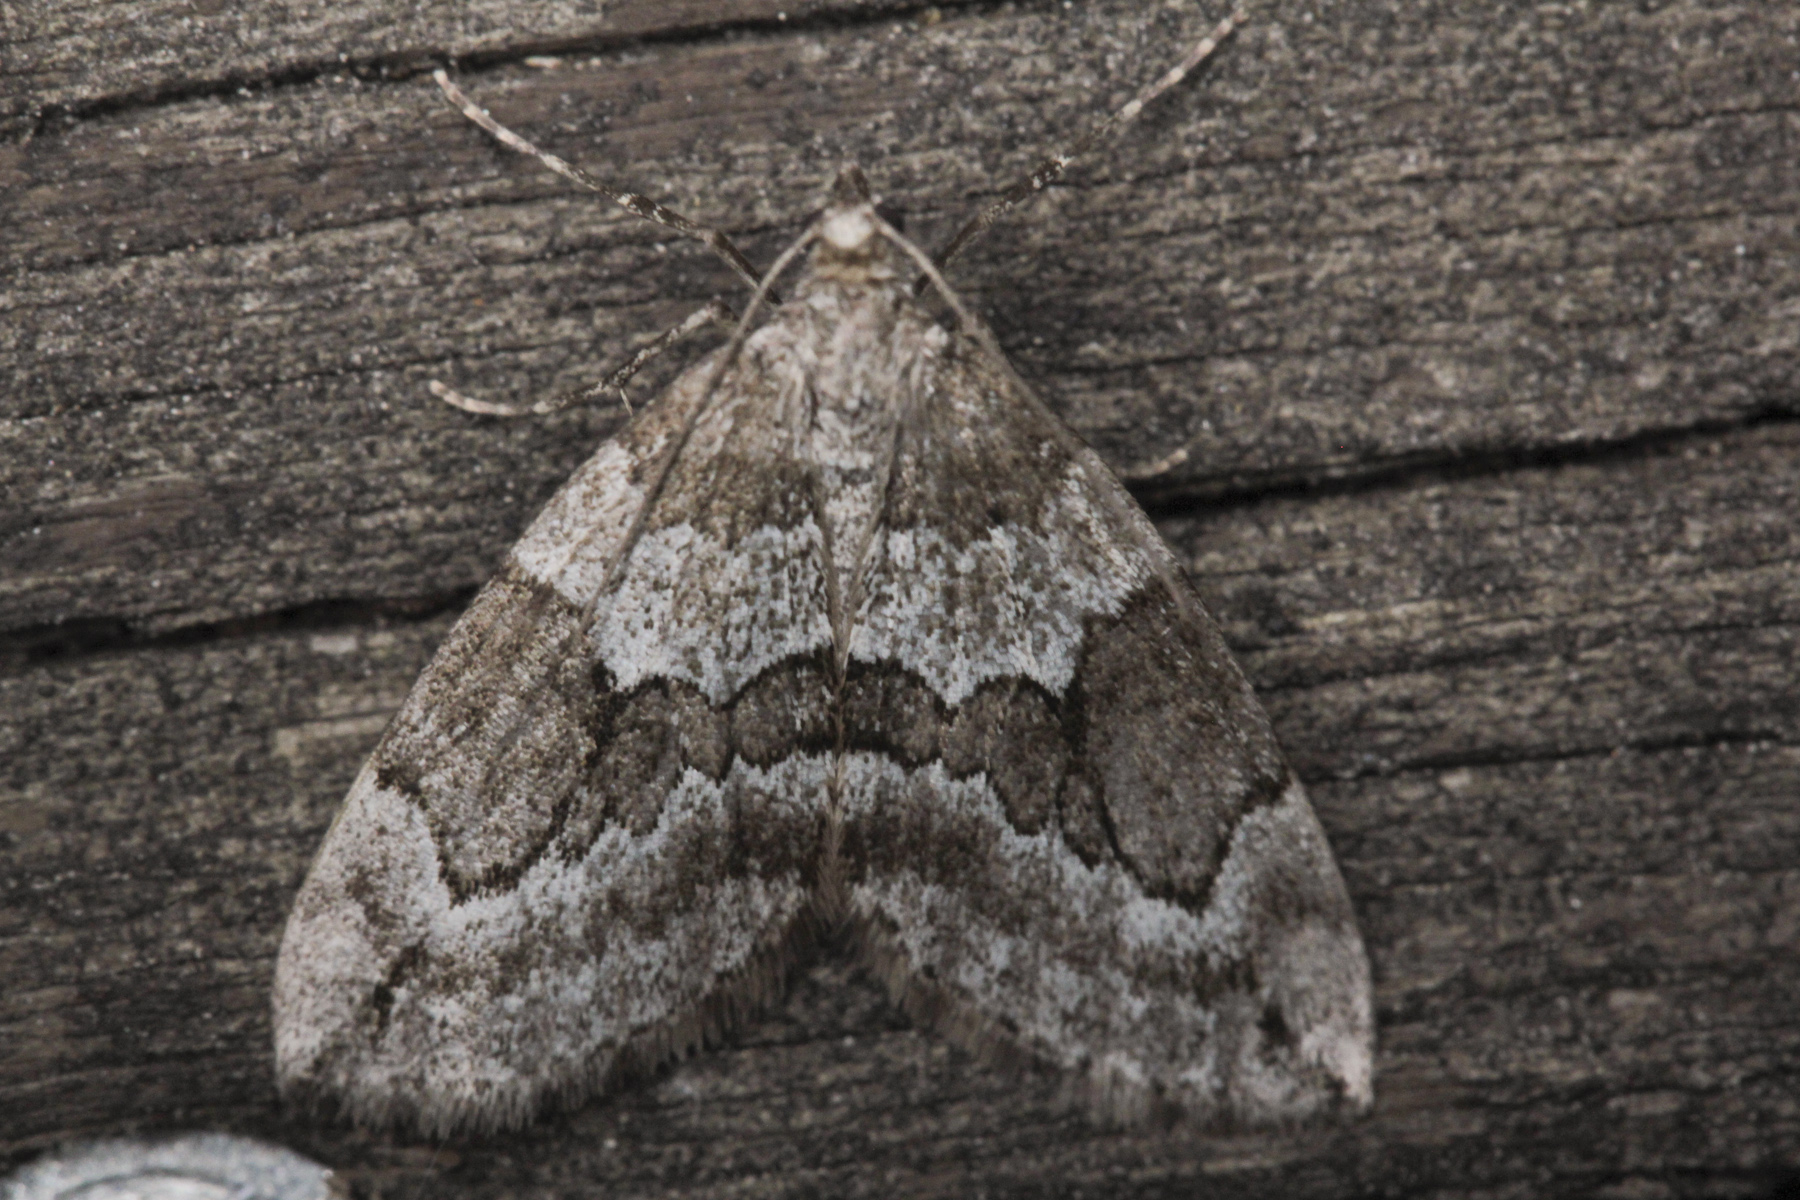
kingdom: Animalia
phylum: Arthropoda
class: Insecta
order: Lepidoptera
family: Geometridae
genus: Thera
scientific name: Thera juniperata
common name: Juniper carpet
